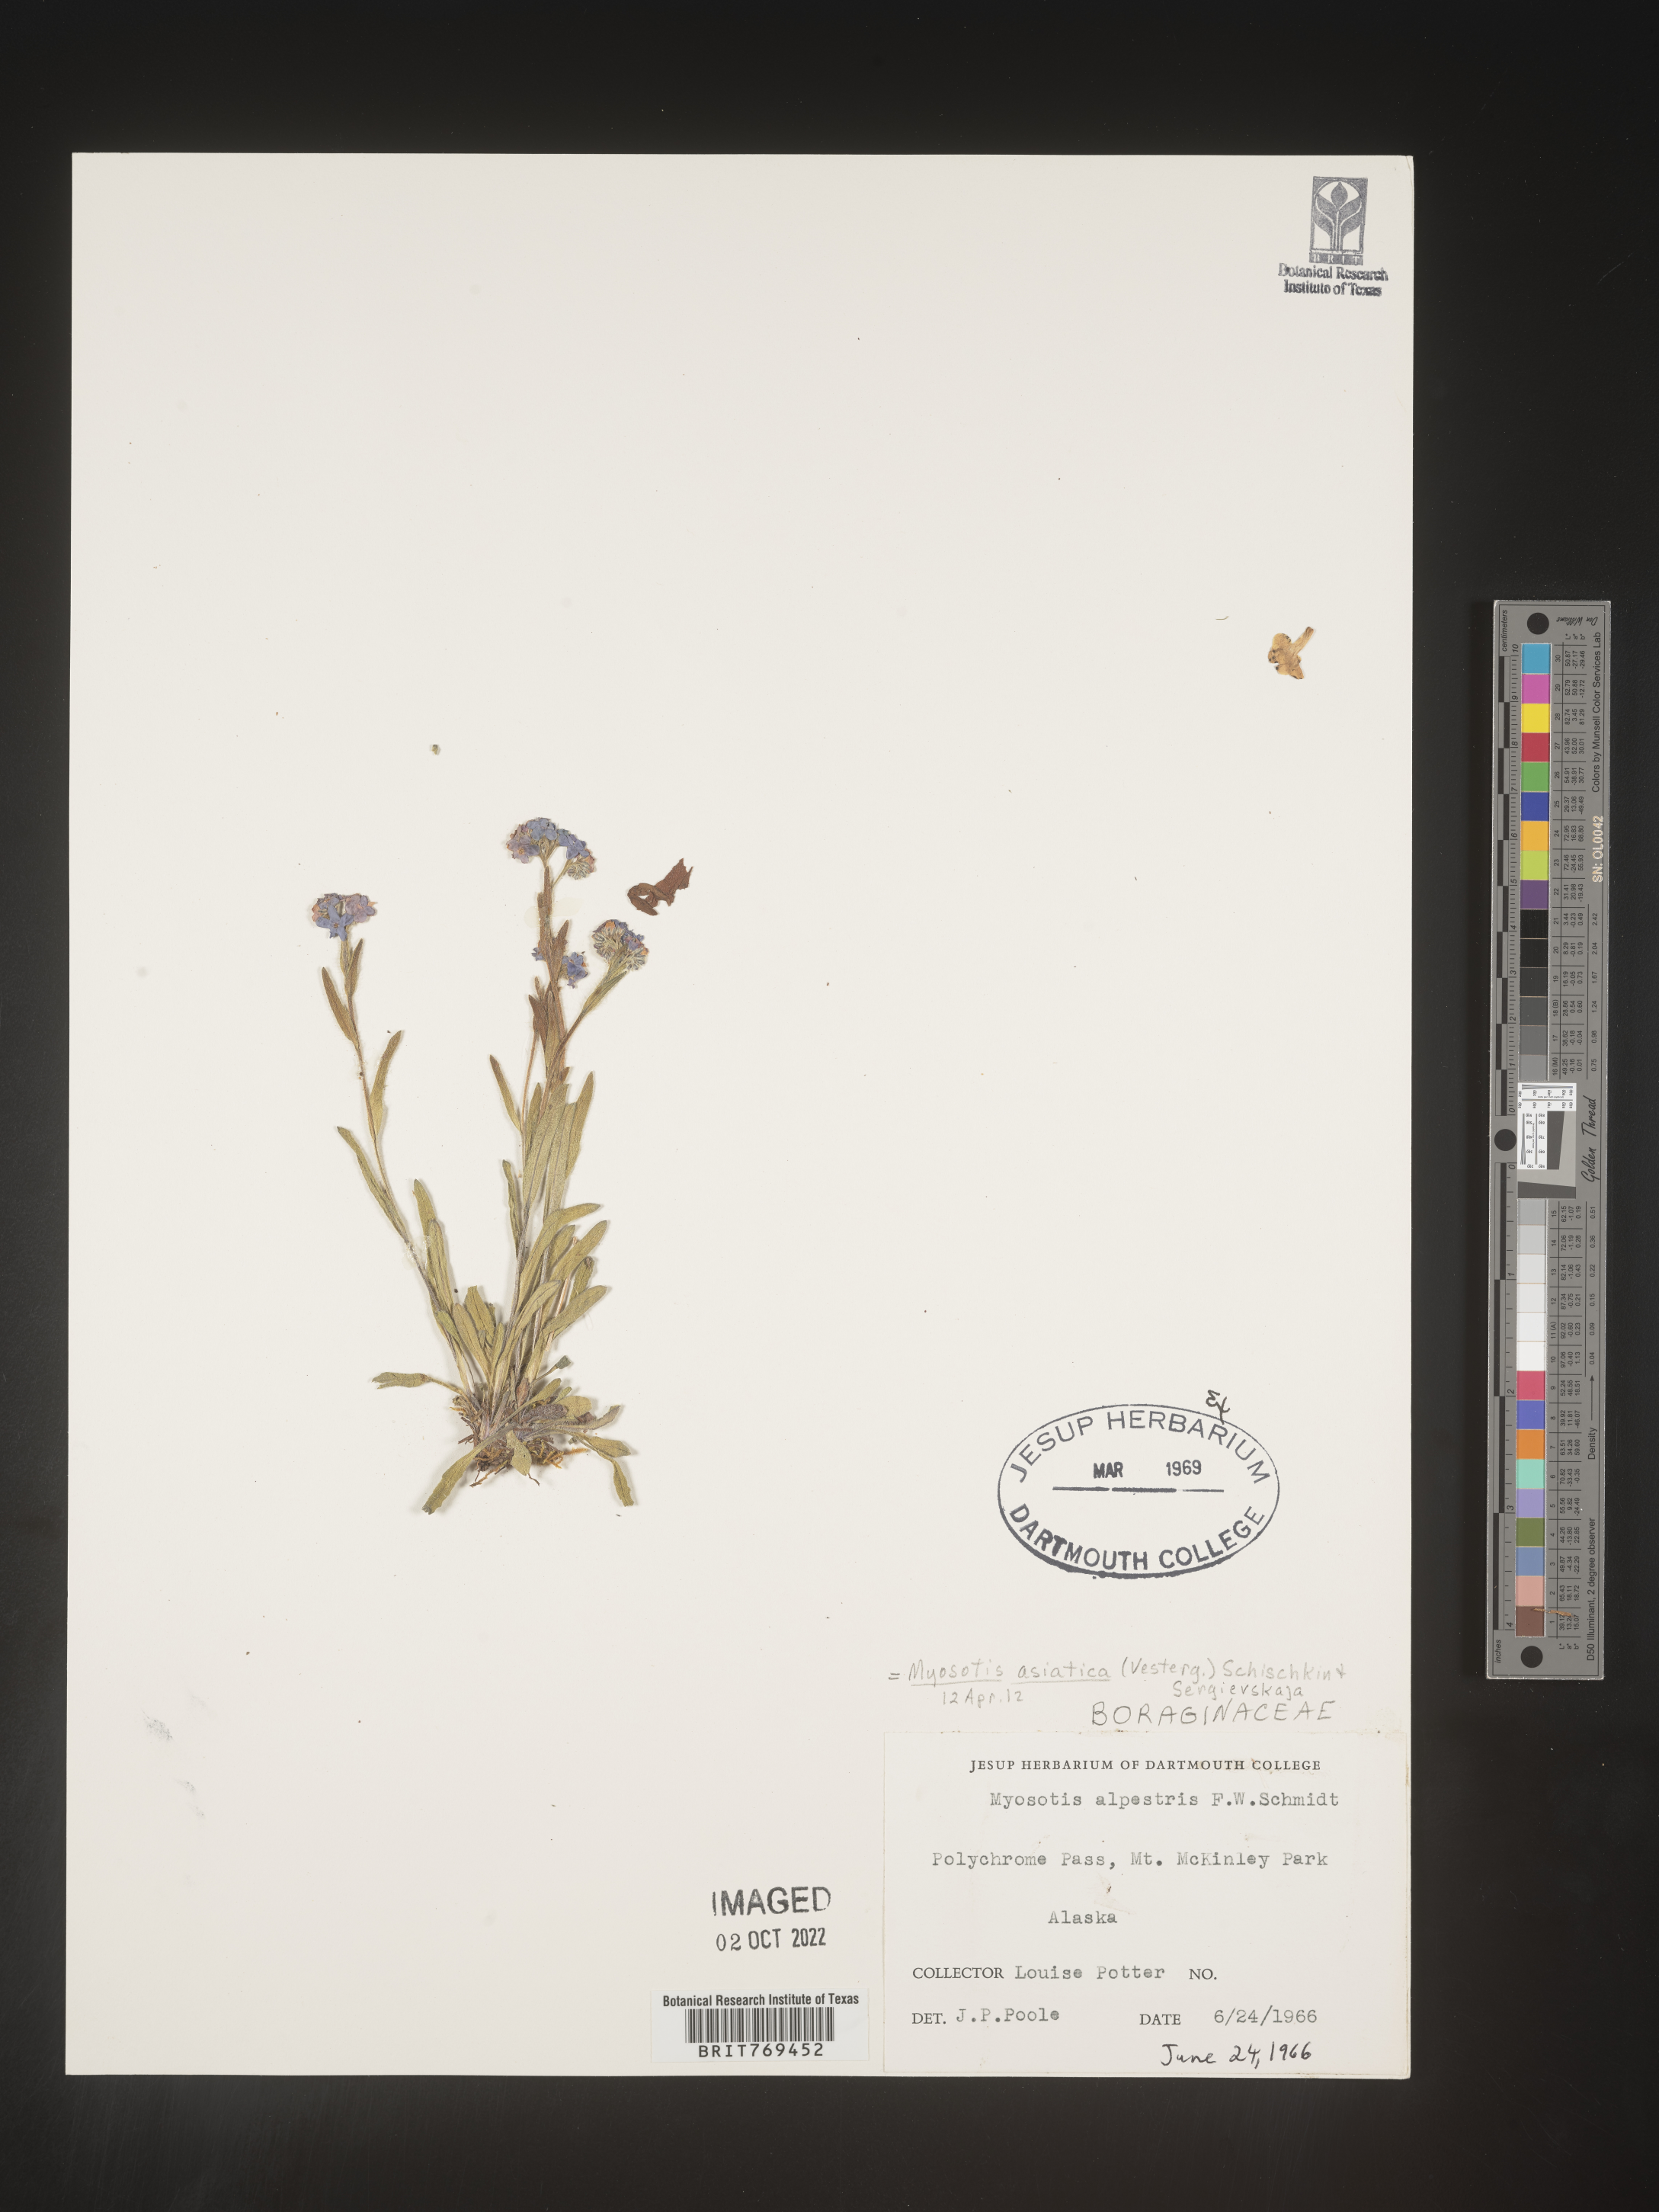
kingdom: Plantae
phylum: Tracheophyta
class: Magnoliopsida
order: Boraginales
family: Boraginaceae
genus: Myosotis
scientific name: Myosotis
